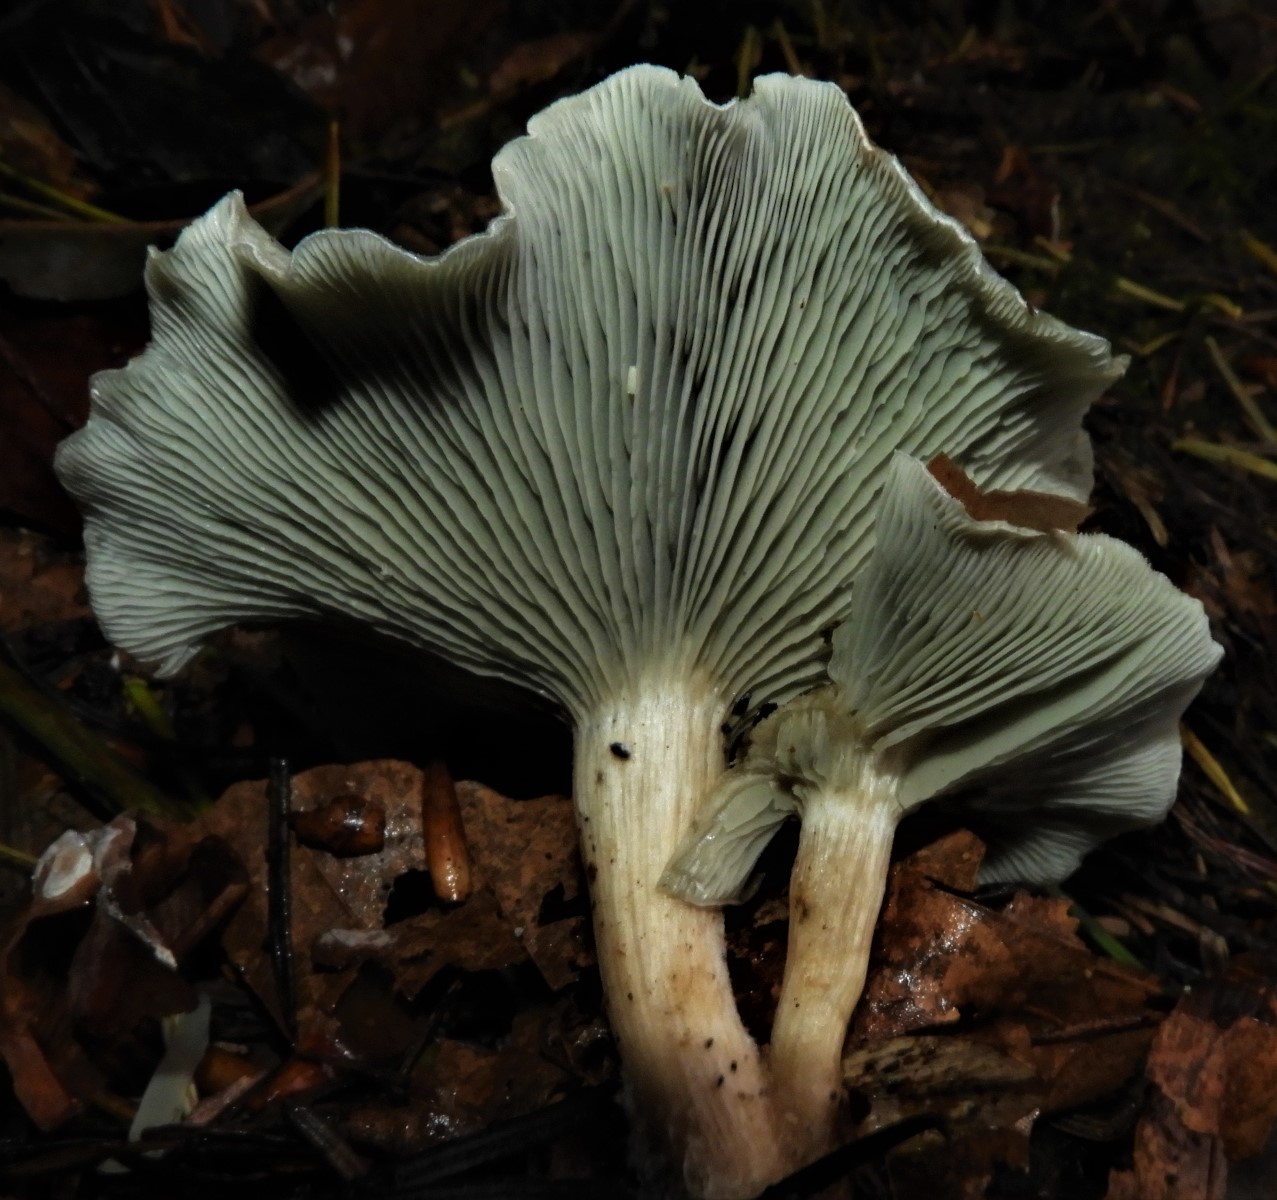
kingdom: Fungi
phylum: Basidiomycota
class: Agaricomycetes
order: Agaricales
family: Tricholomataceae
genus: Clitocybe
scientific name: Clitocybe odora
